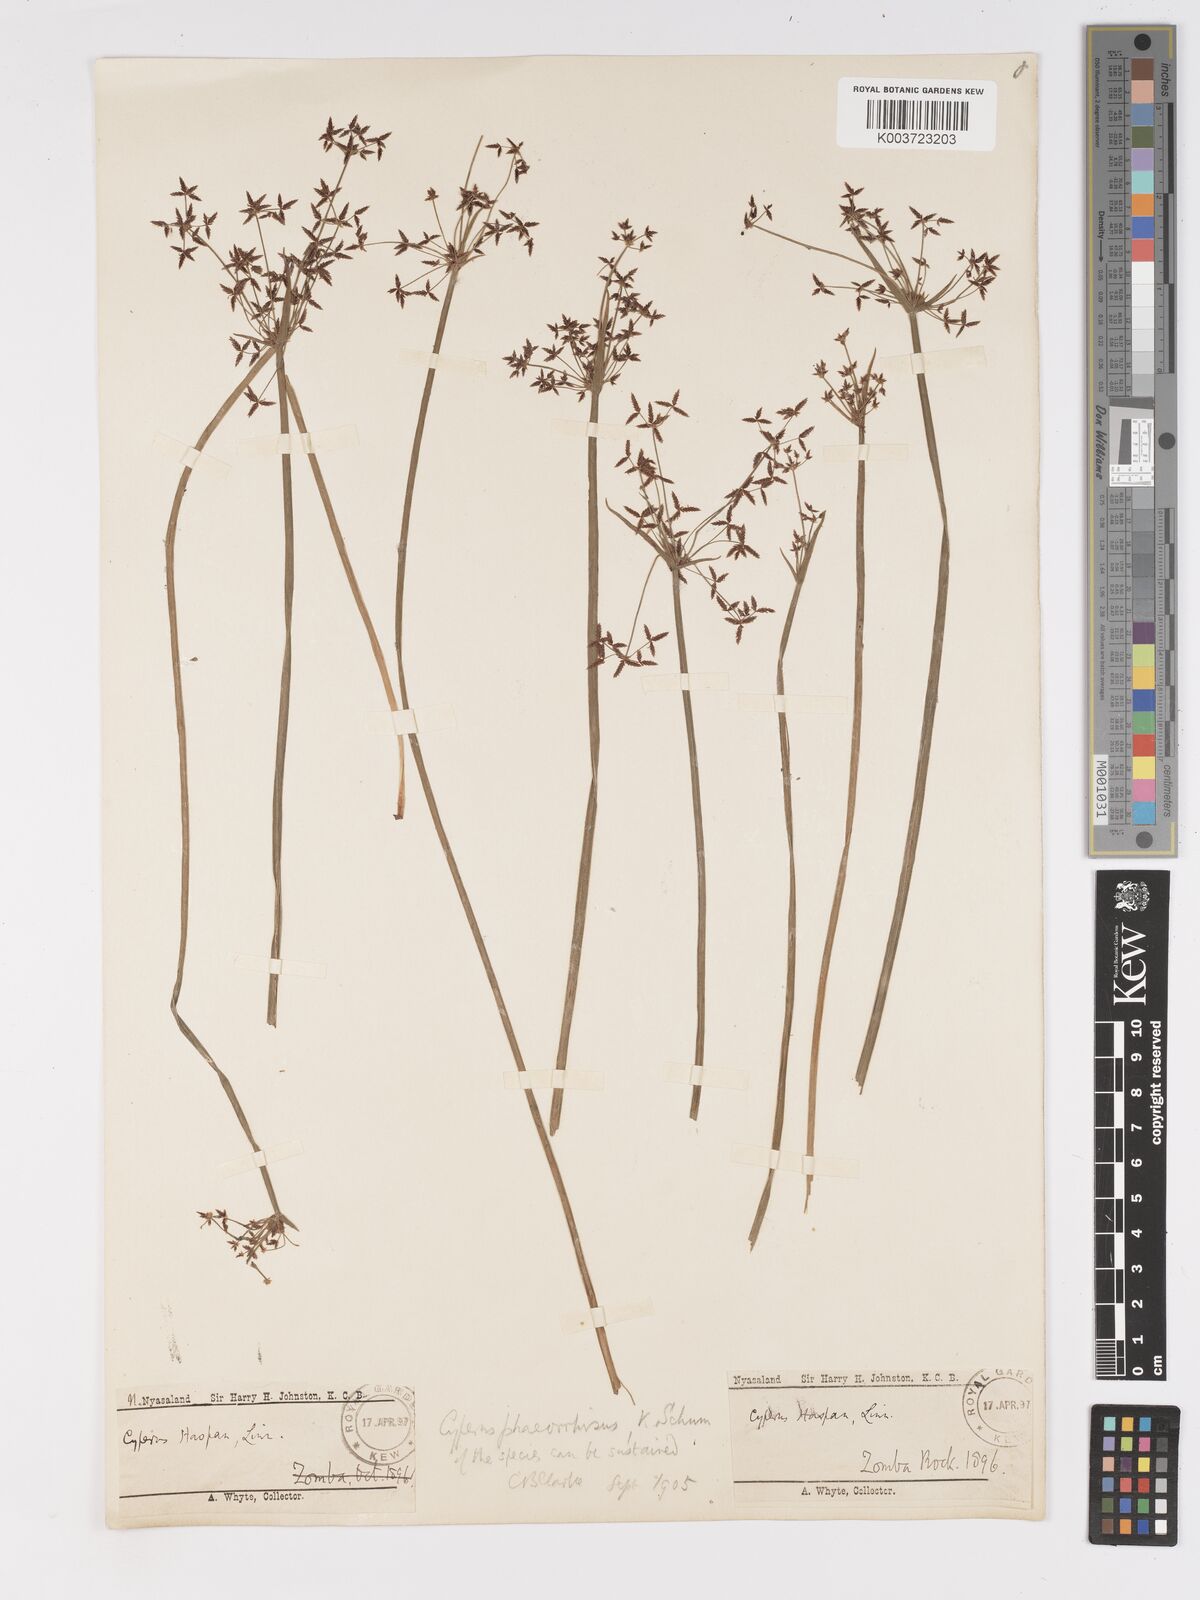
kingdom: Plantae
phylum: Tracheophyta
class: Liliopsida
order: Poales
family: Cyperaceae
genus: Cyperus
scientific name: Cyperus haspan
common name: Haspan flatsedge
